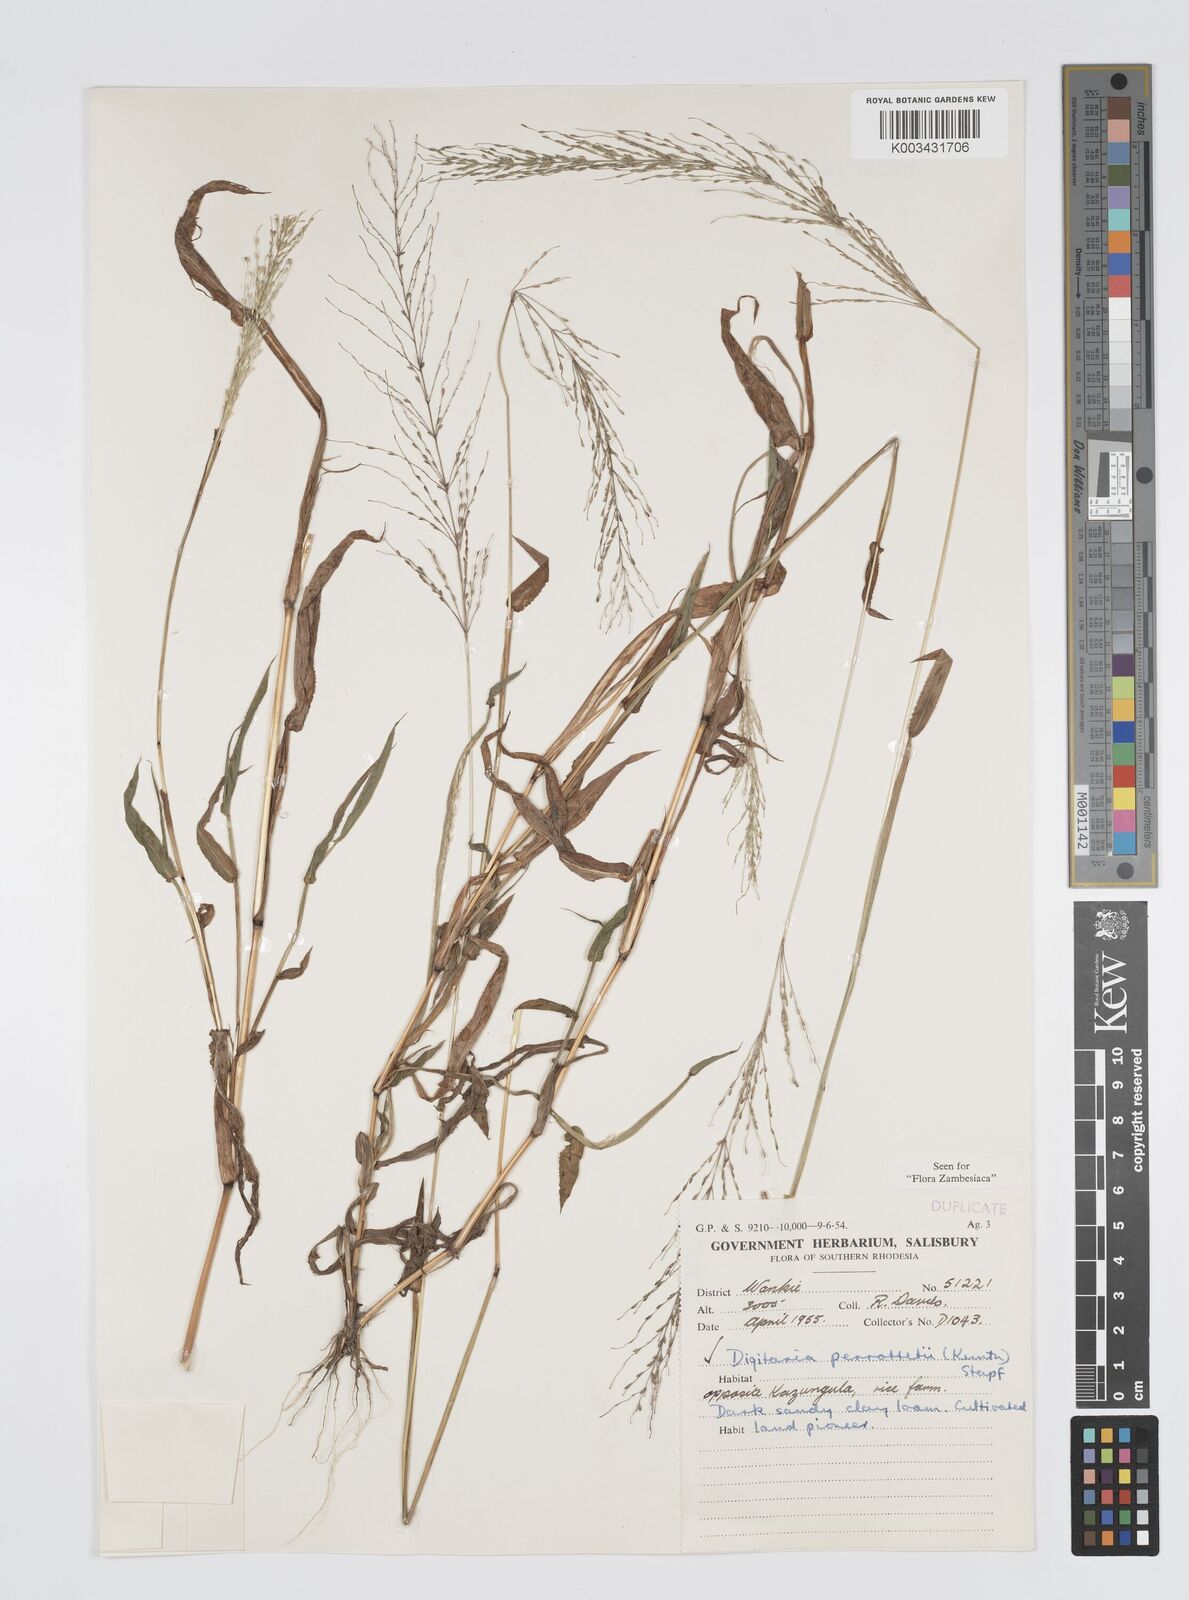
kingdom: Plantae
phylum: Tracheophyta
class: Liliopsida
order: Poales
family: Poaceae
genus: Digitaria
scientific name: Digitaria perrottetii
